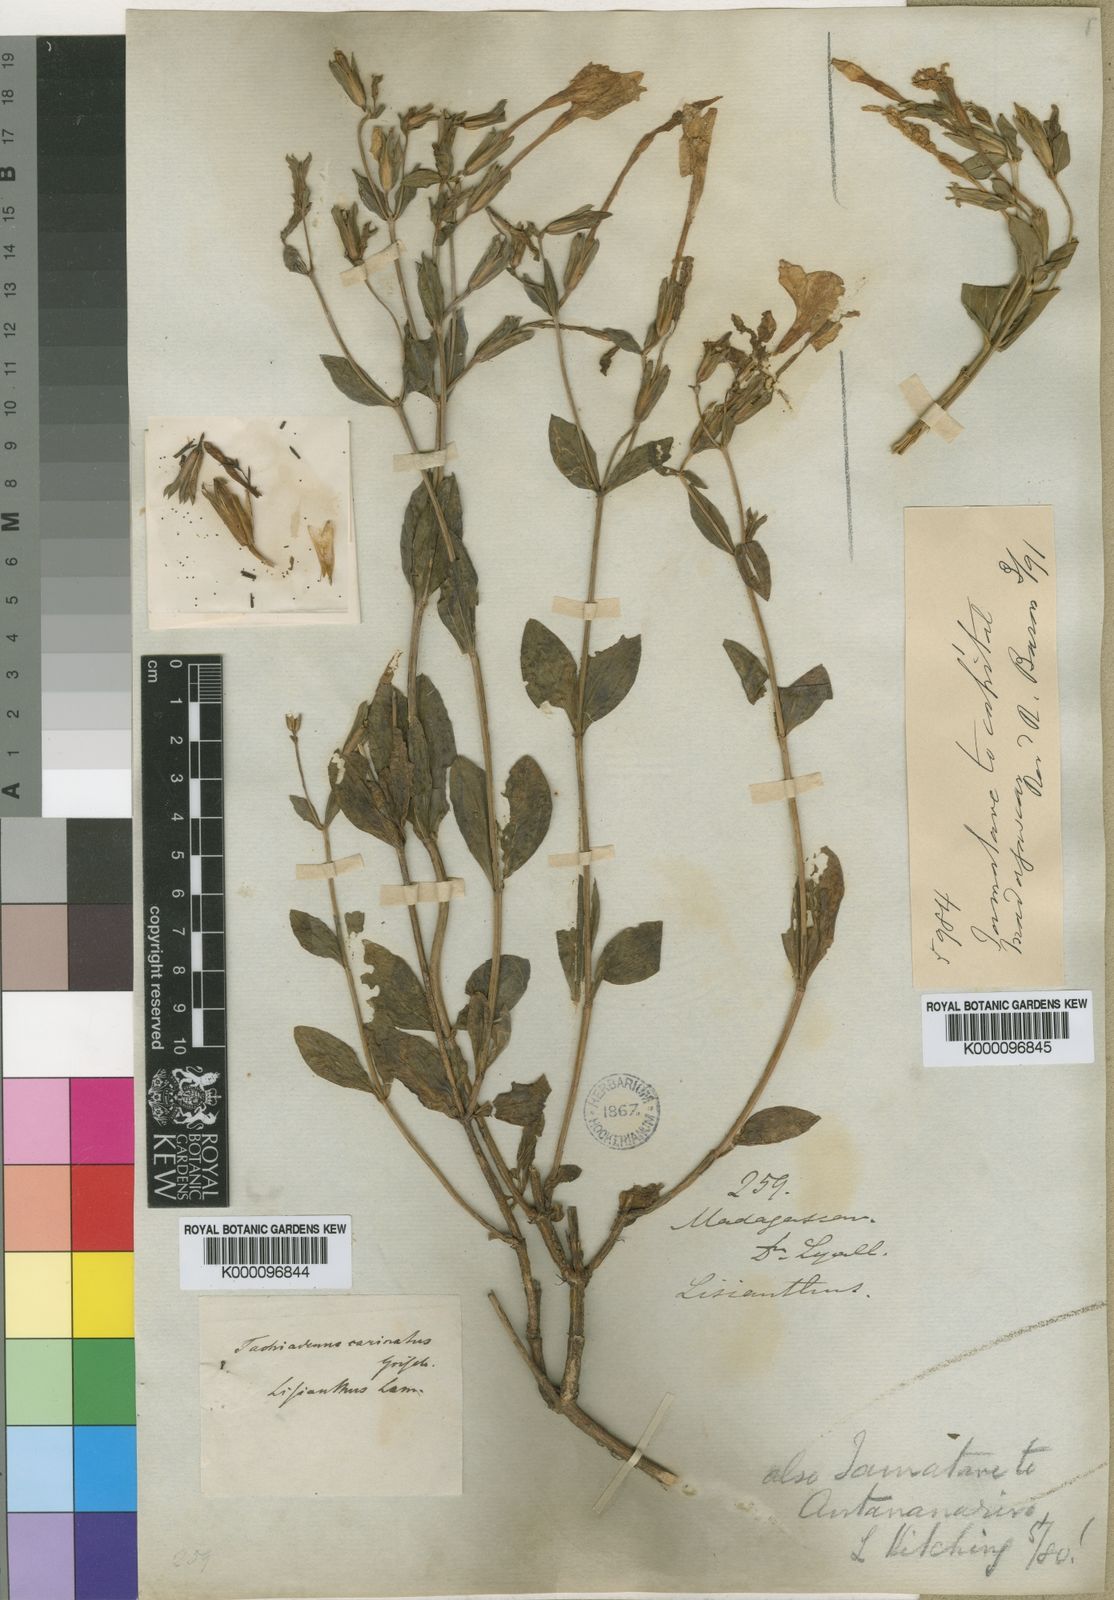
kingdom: Plantae
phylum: Tracheophyta
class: Magnoliopsida
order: Gentianales
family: Gentianaceae
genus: Tachiadenus
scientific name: Tachiadenus carinatus
